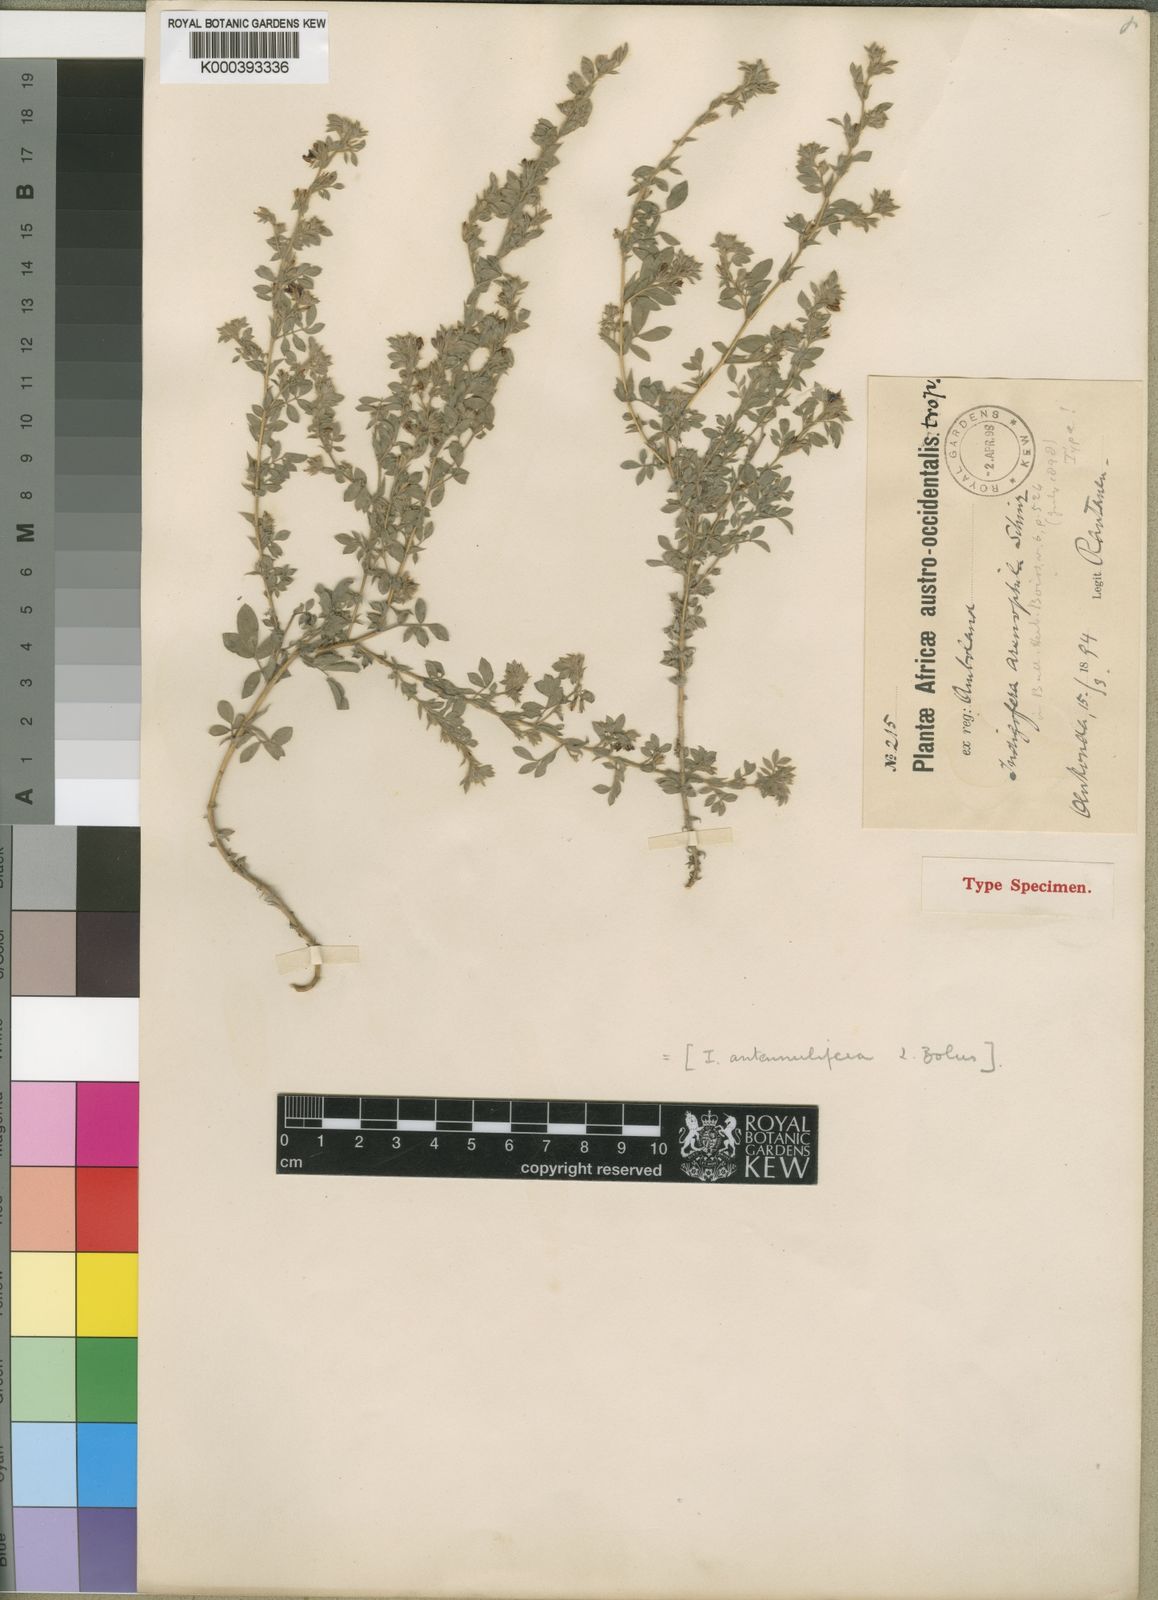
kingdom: Plantae
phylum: Tracheophyta
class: Magnoliopsida
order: Fabales
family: Fabaceae
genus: Indigofera
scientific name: Indigofera arenophila
